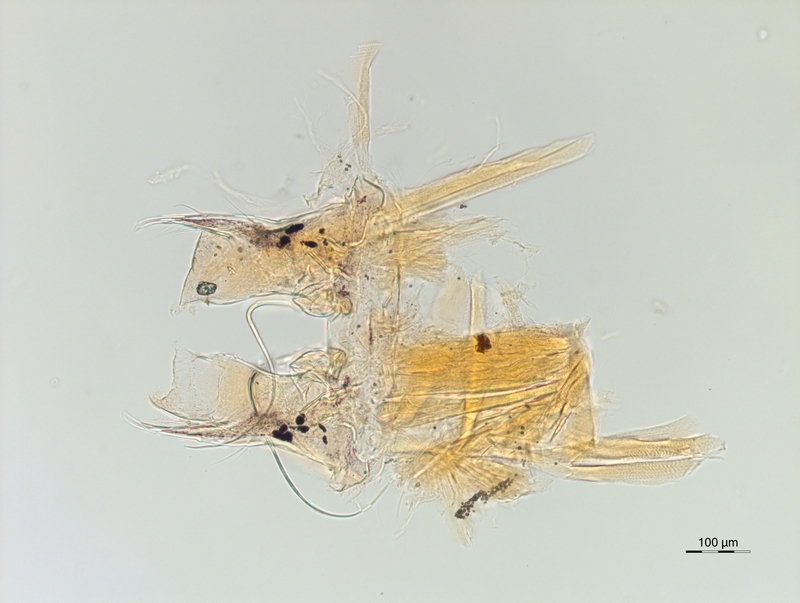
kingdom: Animalia
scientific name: Animalia
